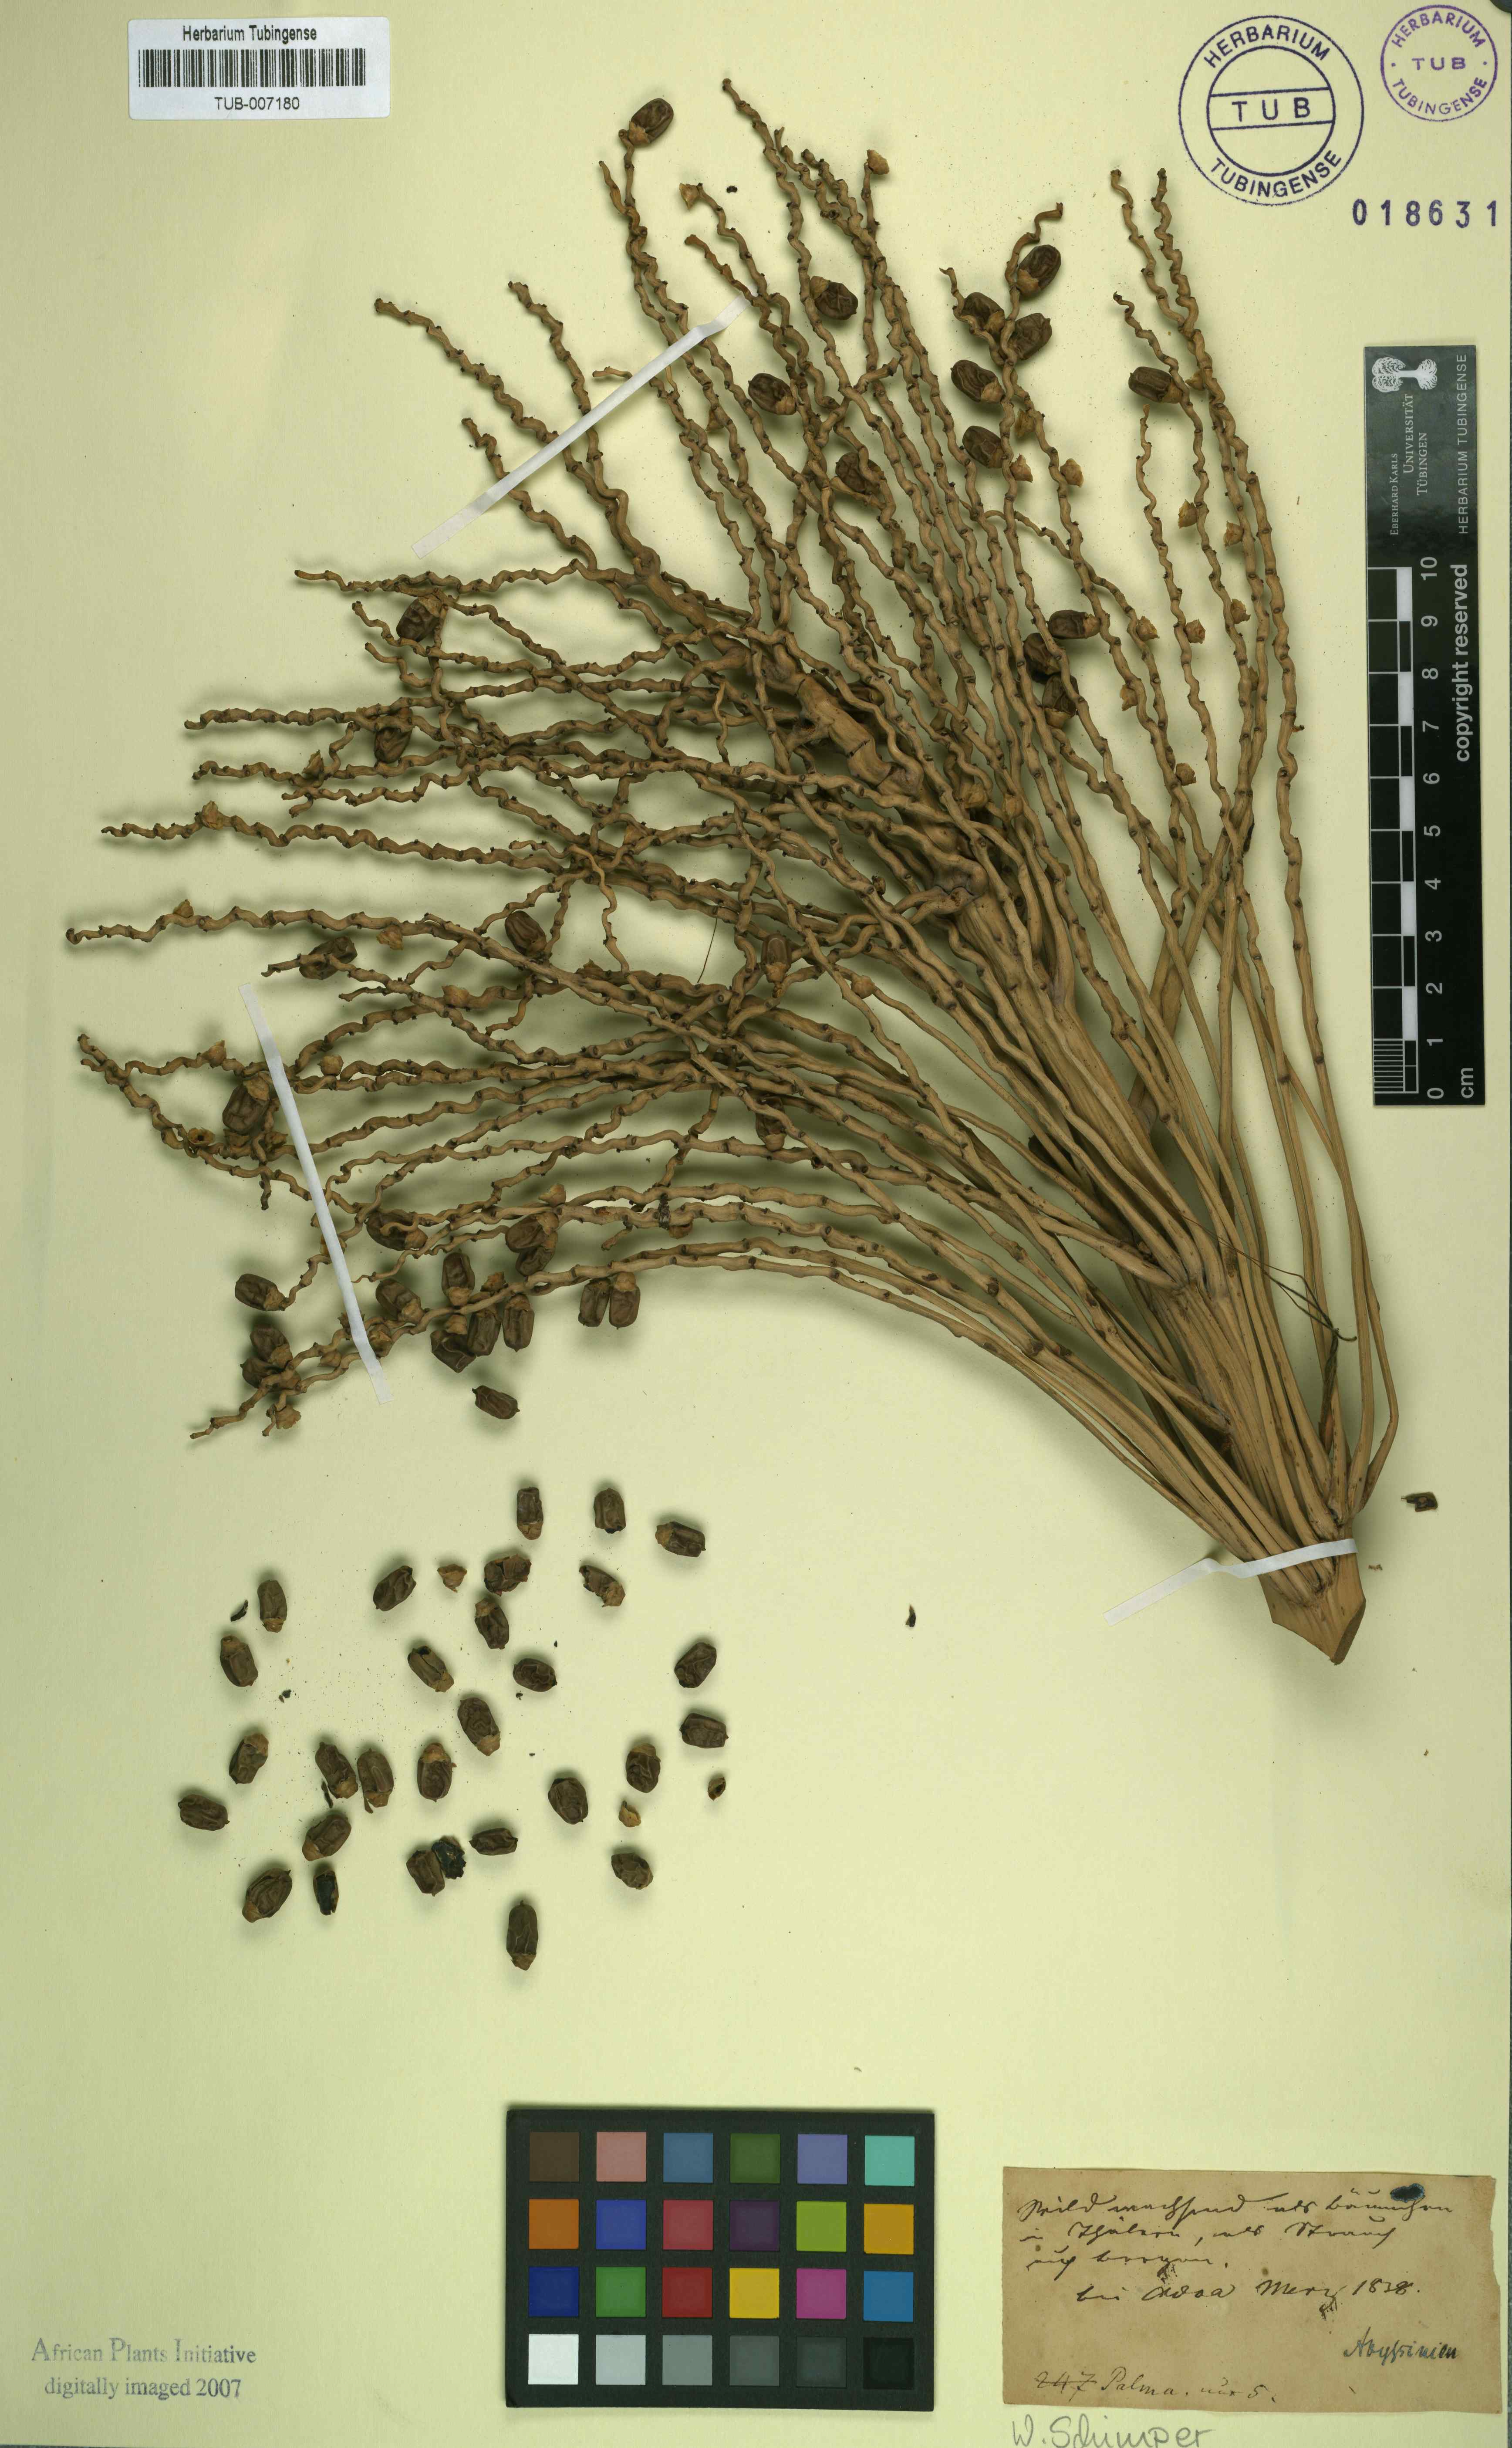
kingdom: Plantae
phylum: Tracheophyta
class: Liliopsida
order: Arecales
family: Arecaceae
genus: Phoenix
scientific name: Phoenix
